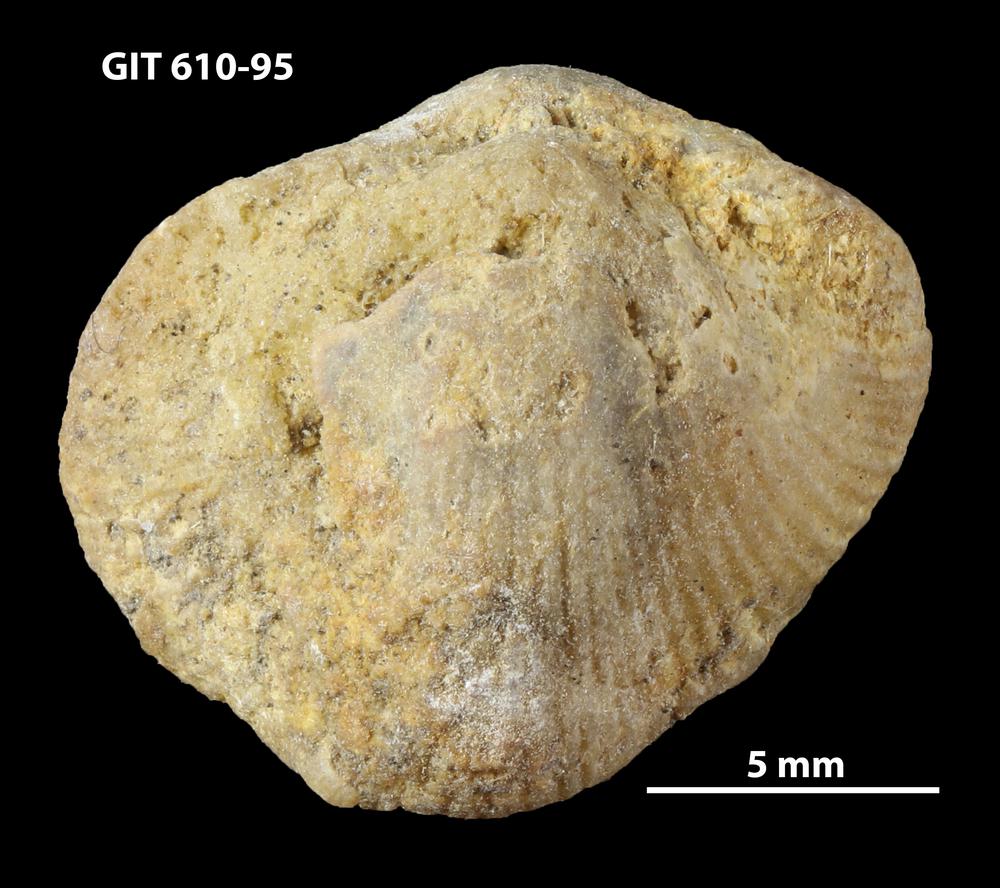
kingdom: Animalia
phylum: Brachiopoda
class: Rhynchonellata
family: Triplesiidae
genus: Cliftonia
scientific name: Cliftonia
